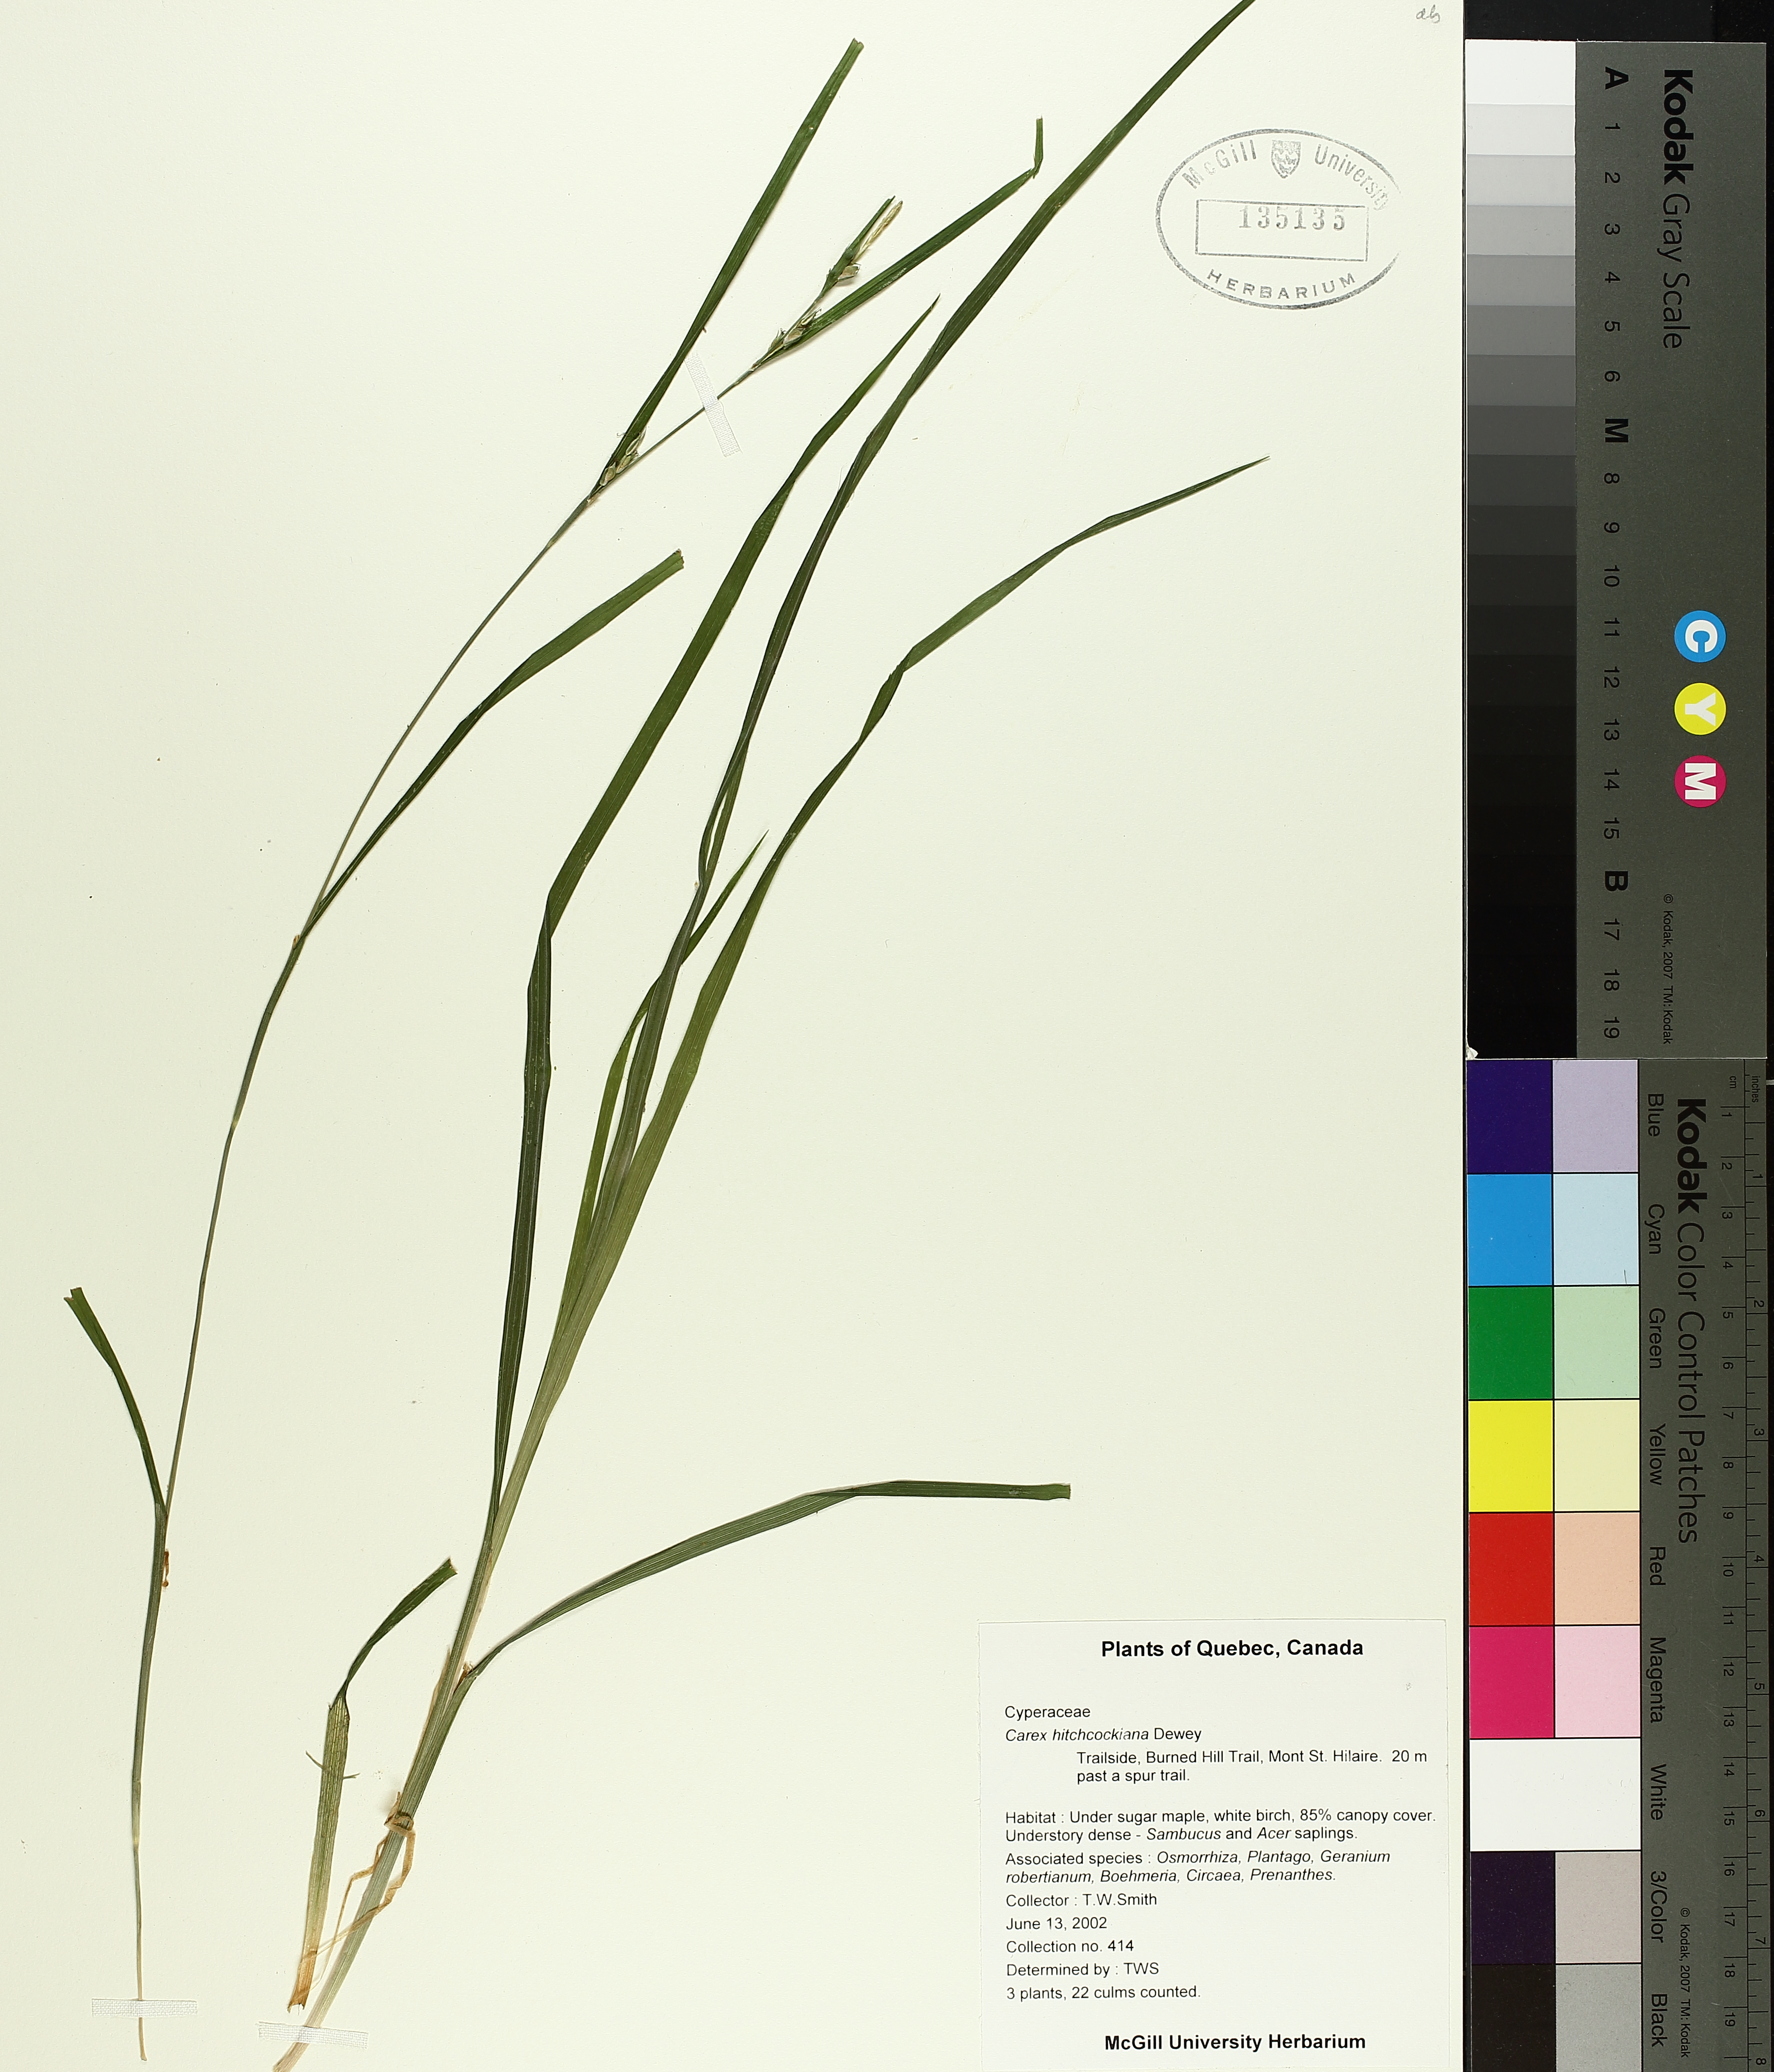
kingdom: Plantae
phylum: Tracheophyta
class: Liliopsida
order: Poales
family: Cyperaceae
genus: Carex
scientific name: Carex hitchcockiana
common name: Hairy grey sedge
